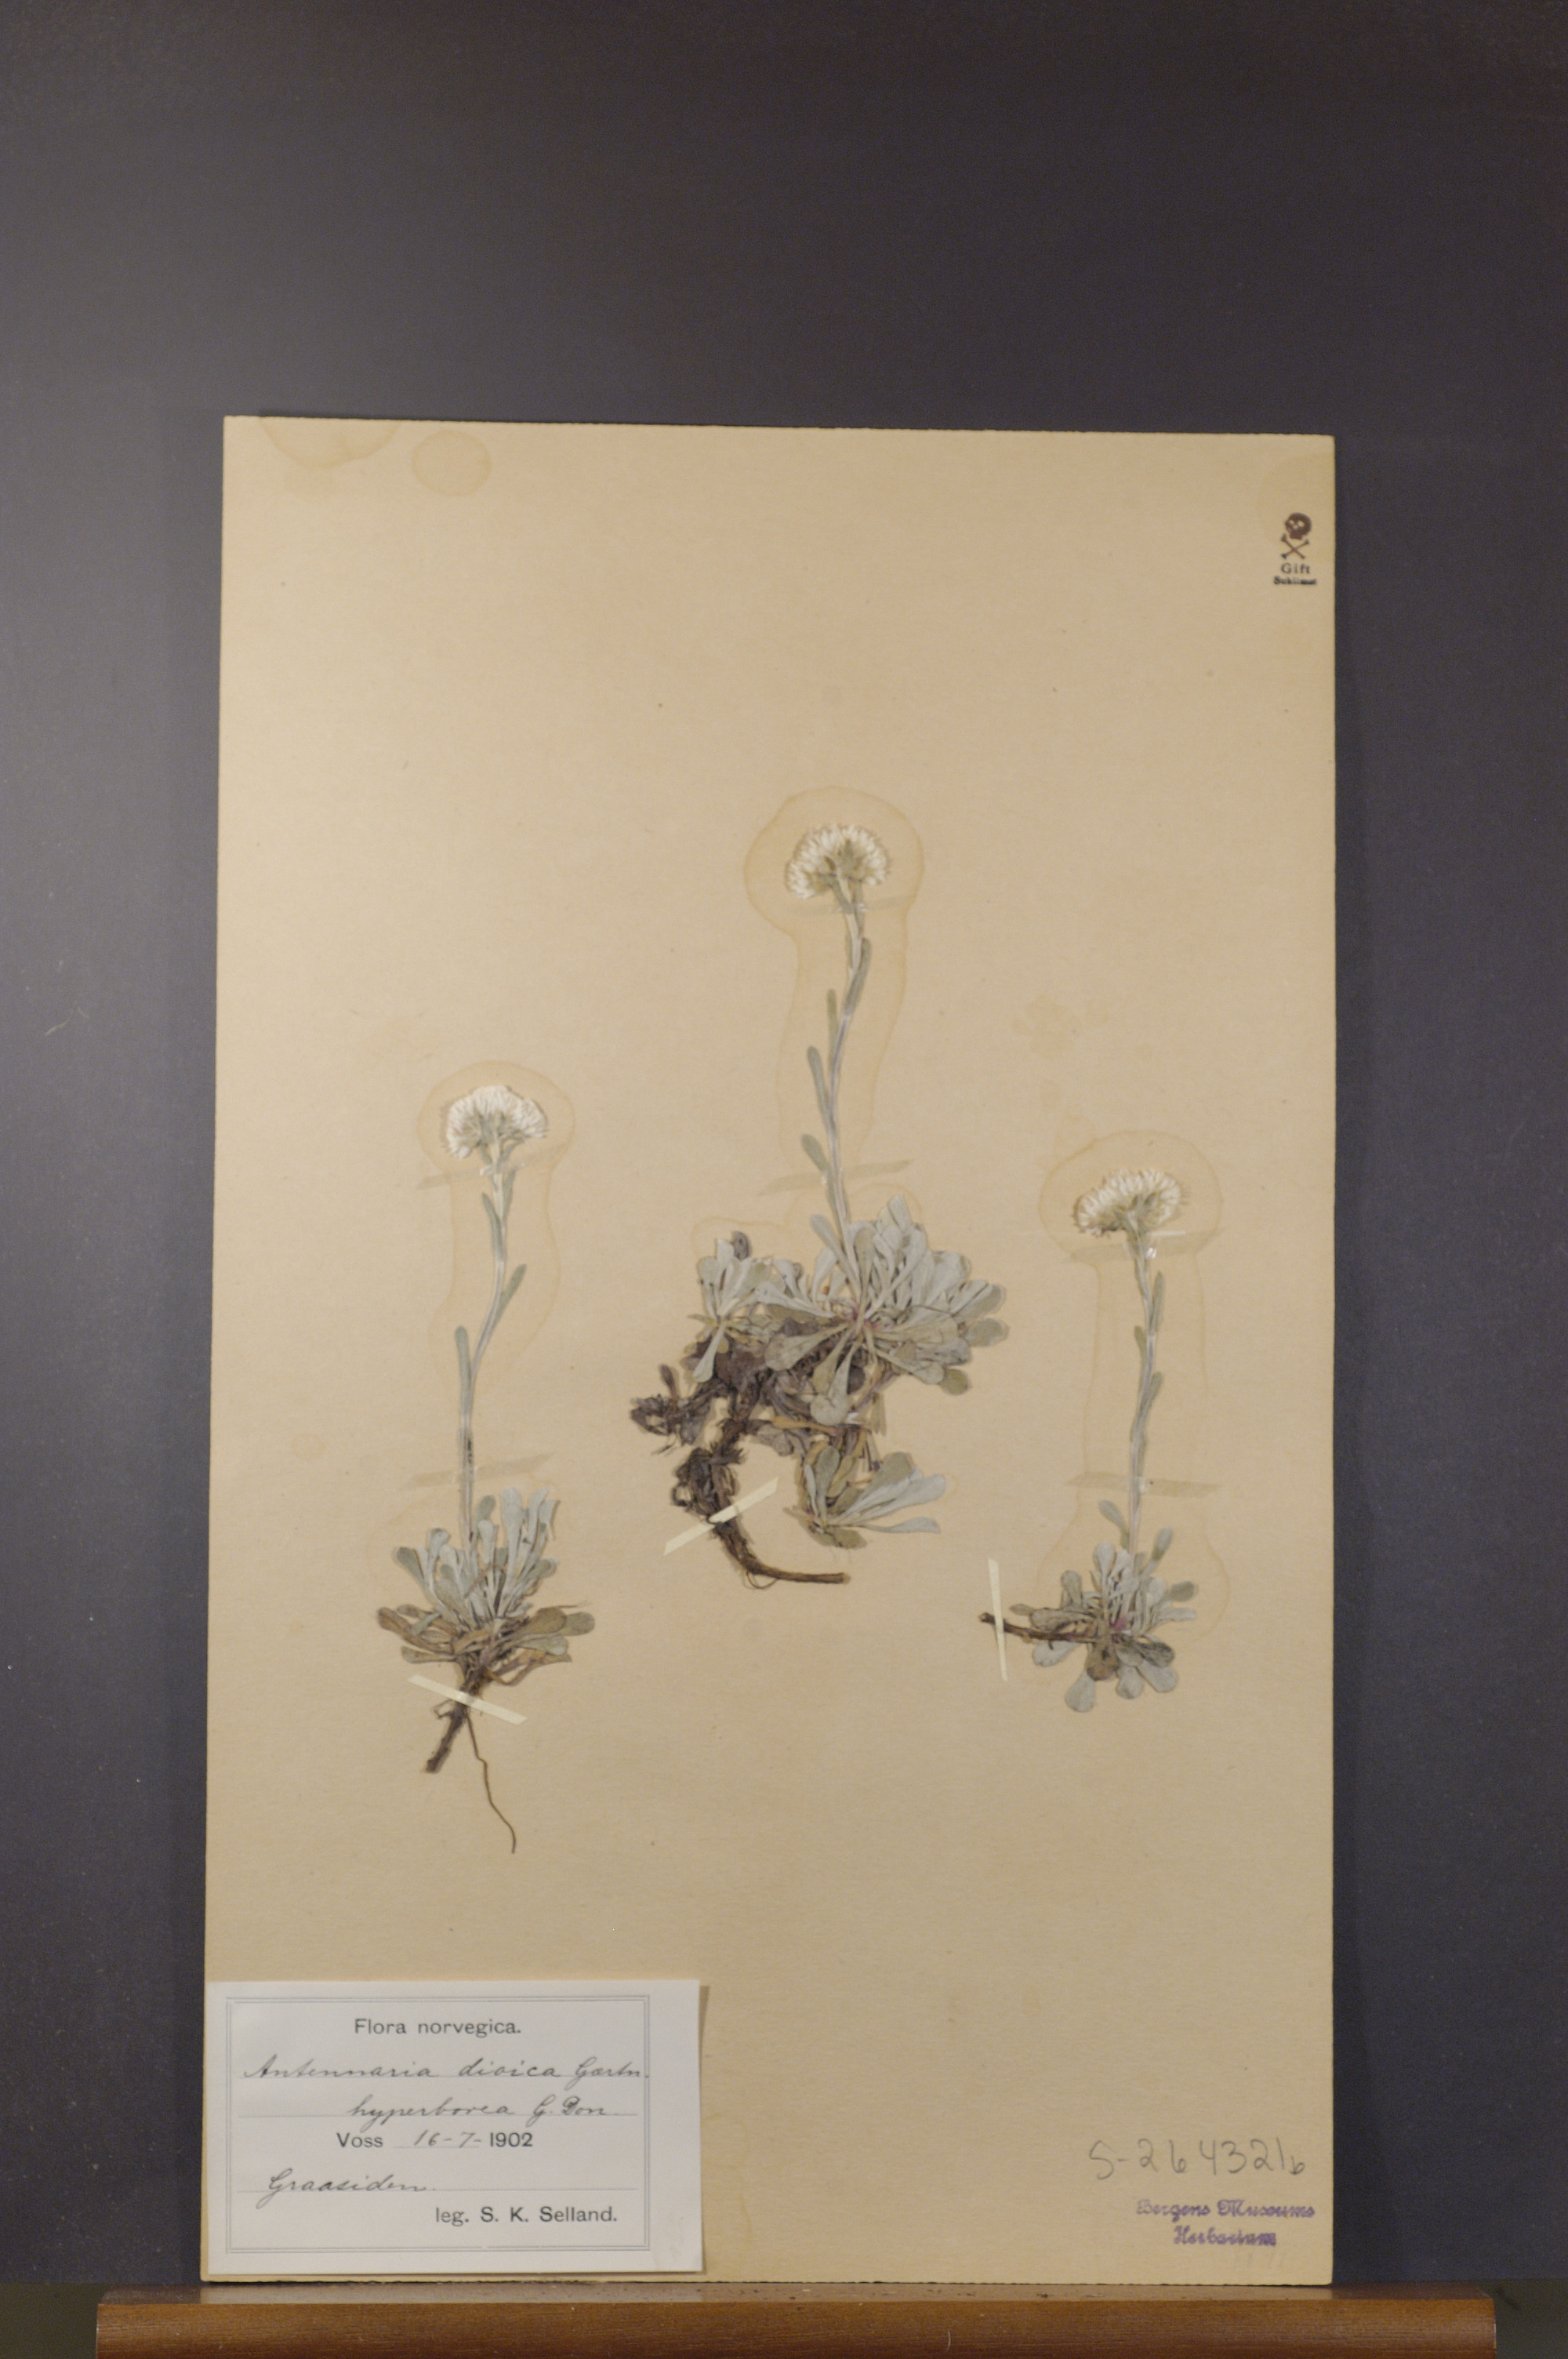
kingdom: Plantae
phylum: Tracheophyta
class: Magnoliopsida
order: Asterales
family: Asteraceae
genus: Antennaria
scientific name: Antennaria dioica
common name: Mountain everlasting
